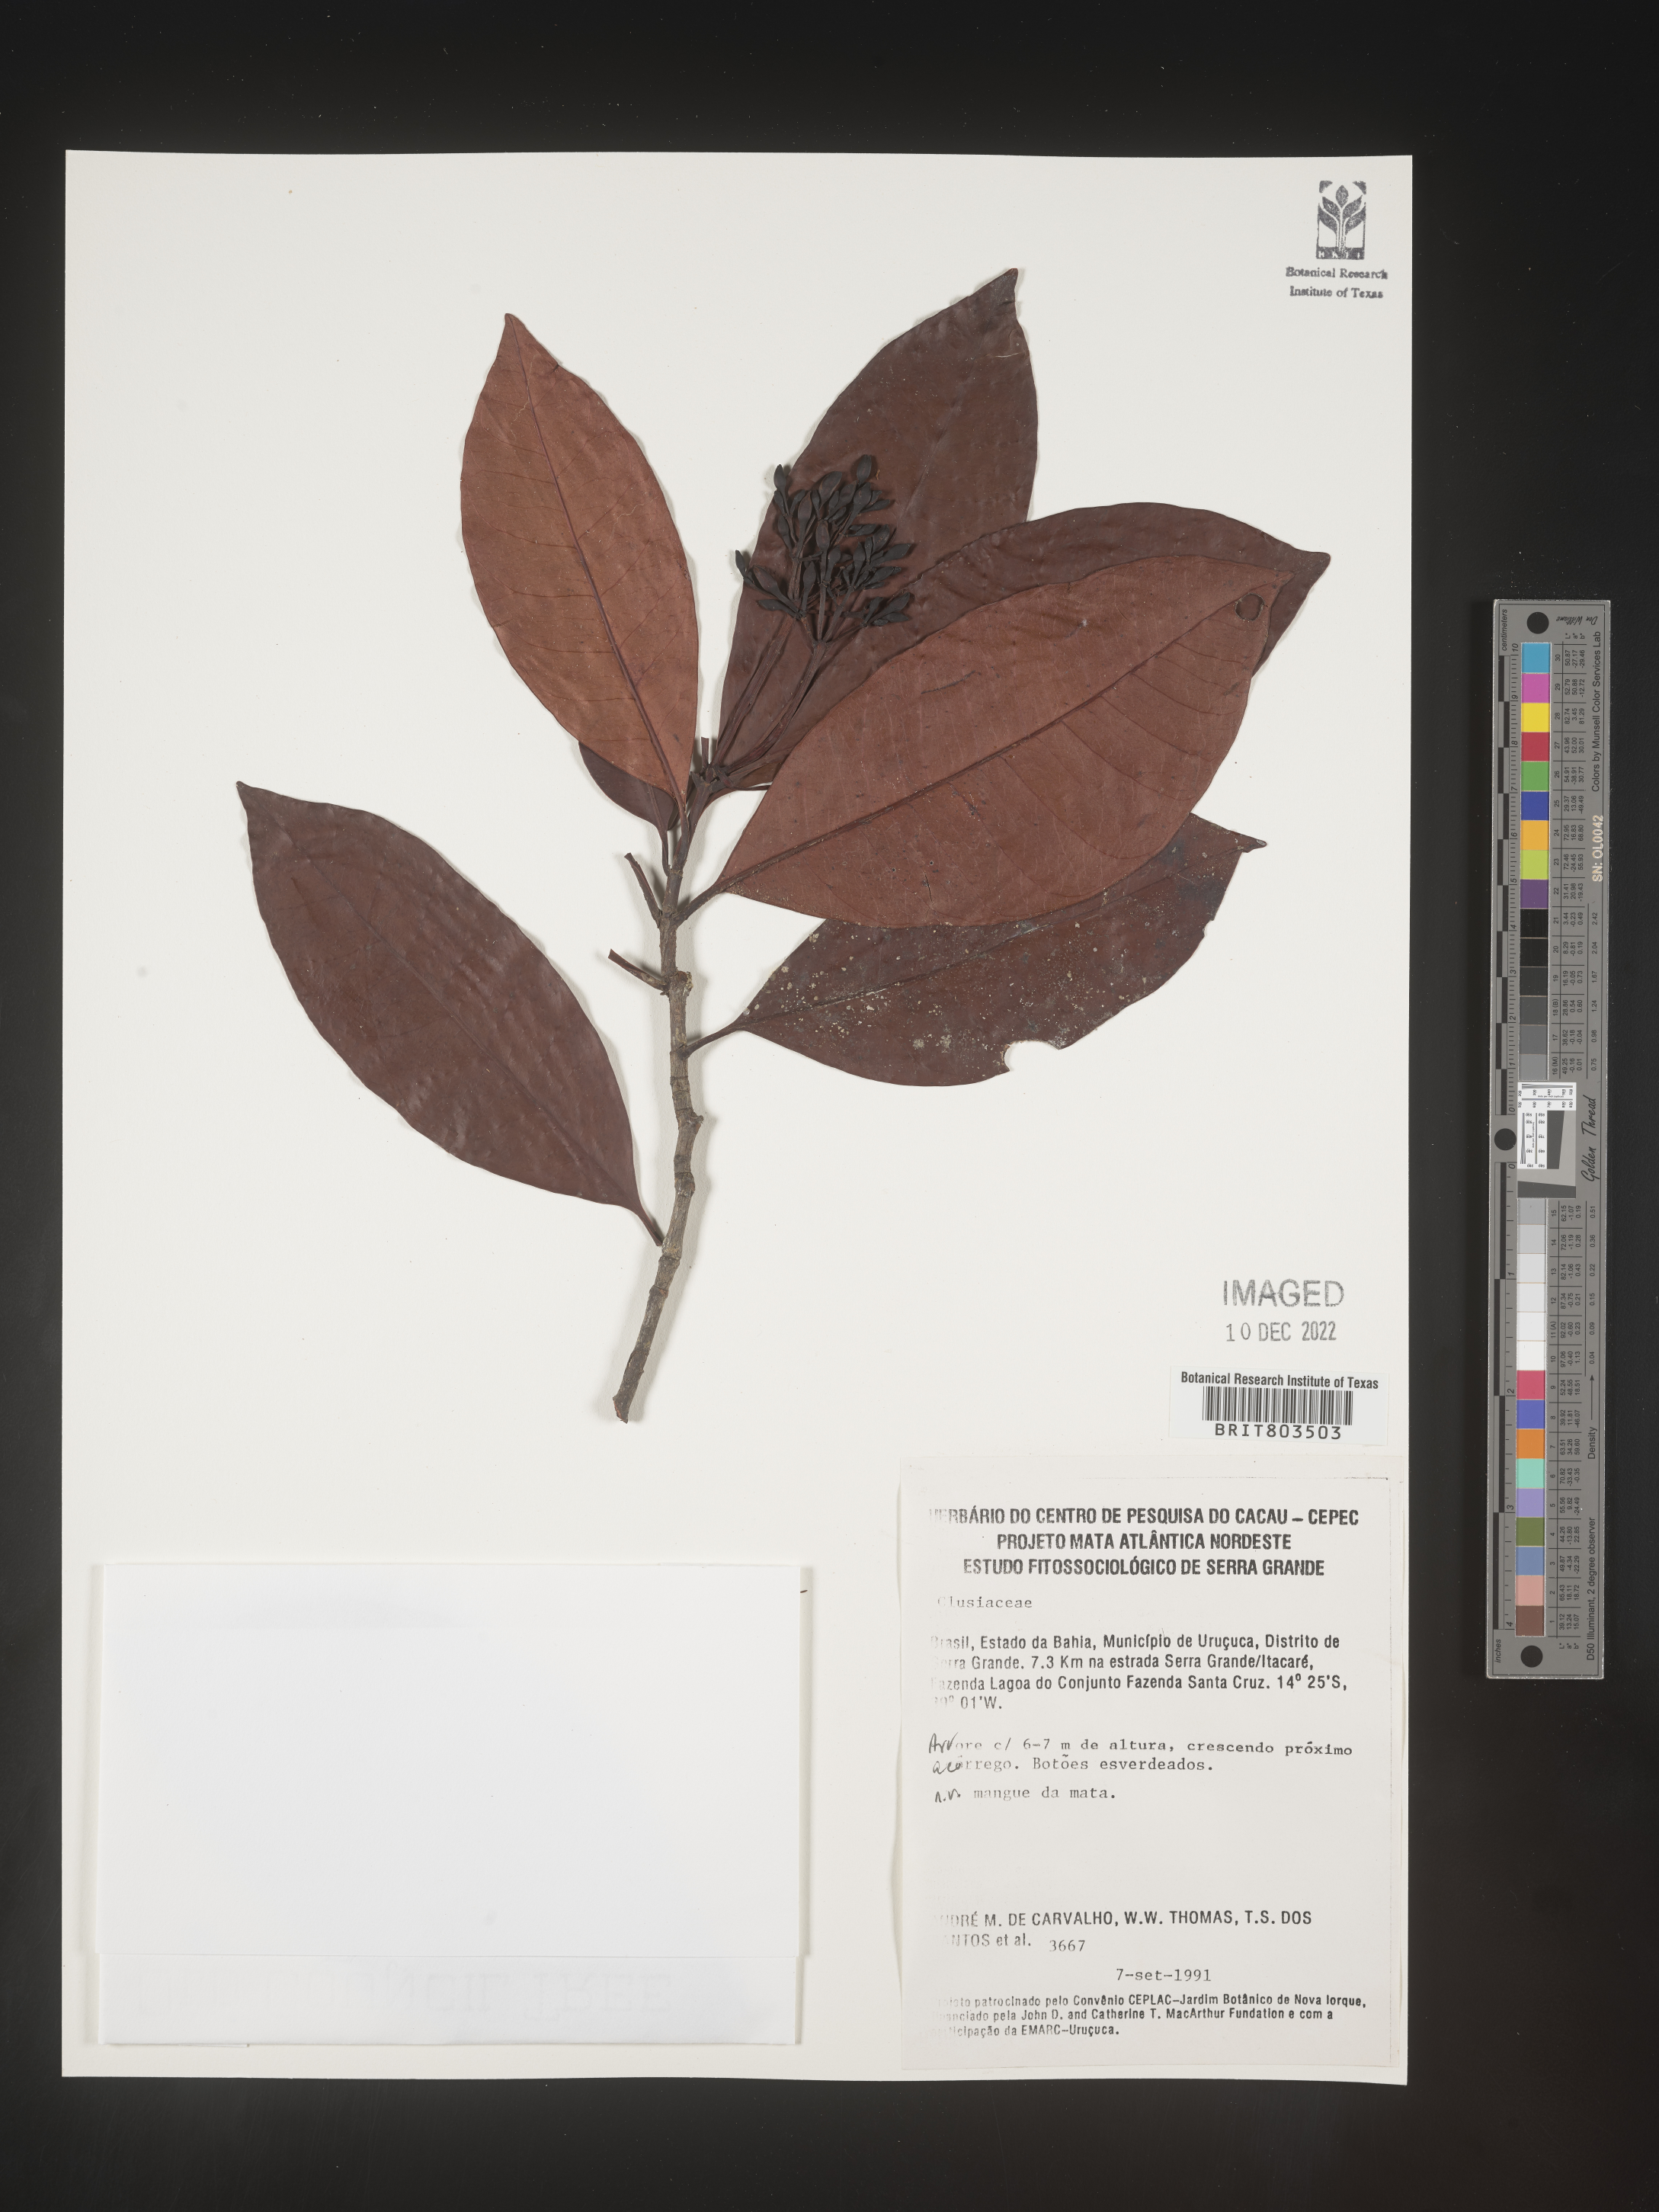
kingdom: Plantae
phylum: Tracheophyta
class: Magnoliopsida
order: Malpighiales
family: Clusiaceae
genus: Tovomita
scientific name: Tovomita
